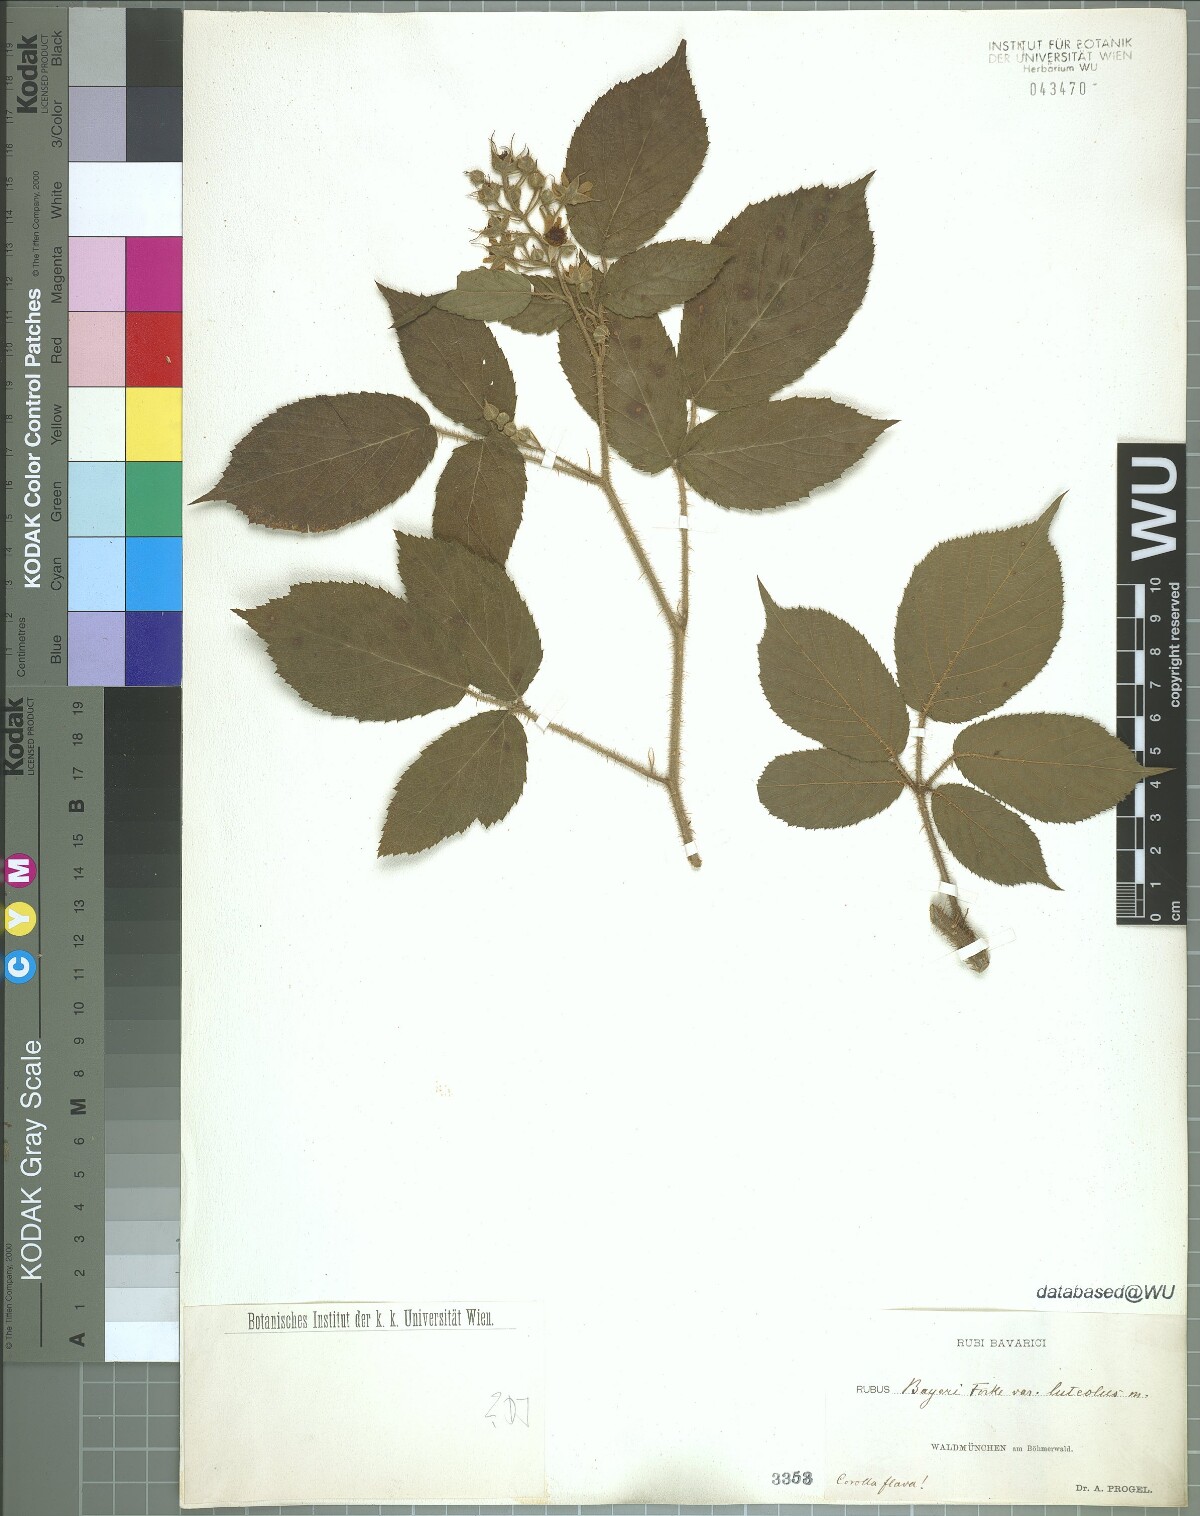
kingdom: Plantae
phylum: Tracheophyta
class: Magnoliopsida
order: Rosales
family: Rosaceae
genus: Rubus
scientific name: Rubus rivularis
